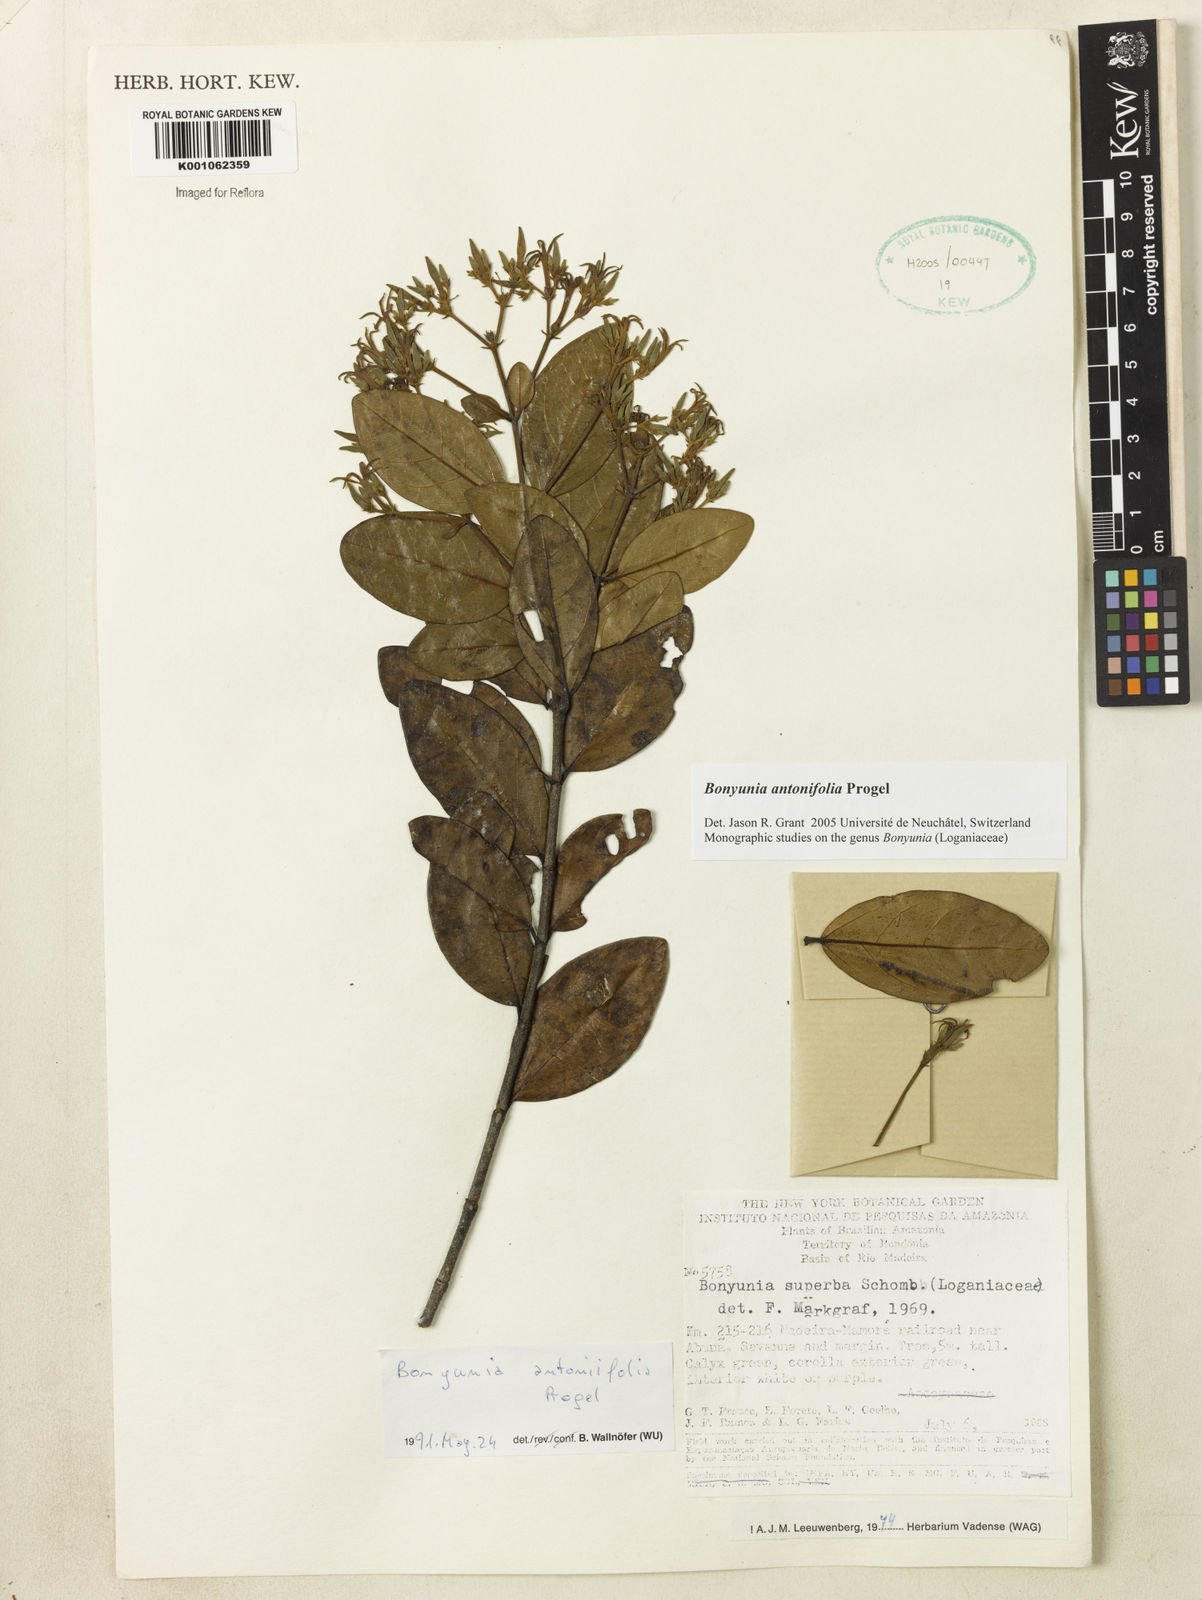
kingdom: Plantae
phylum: Tracheophyta
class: Magnoliopsida
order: Gentianales
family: Loganiaceae
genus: Bonyunia
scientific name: Bonyunia antoniifolia
